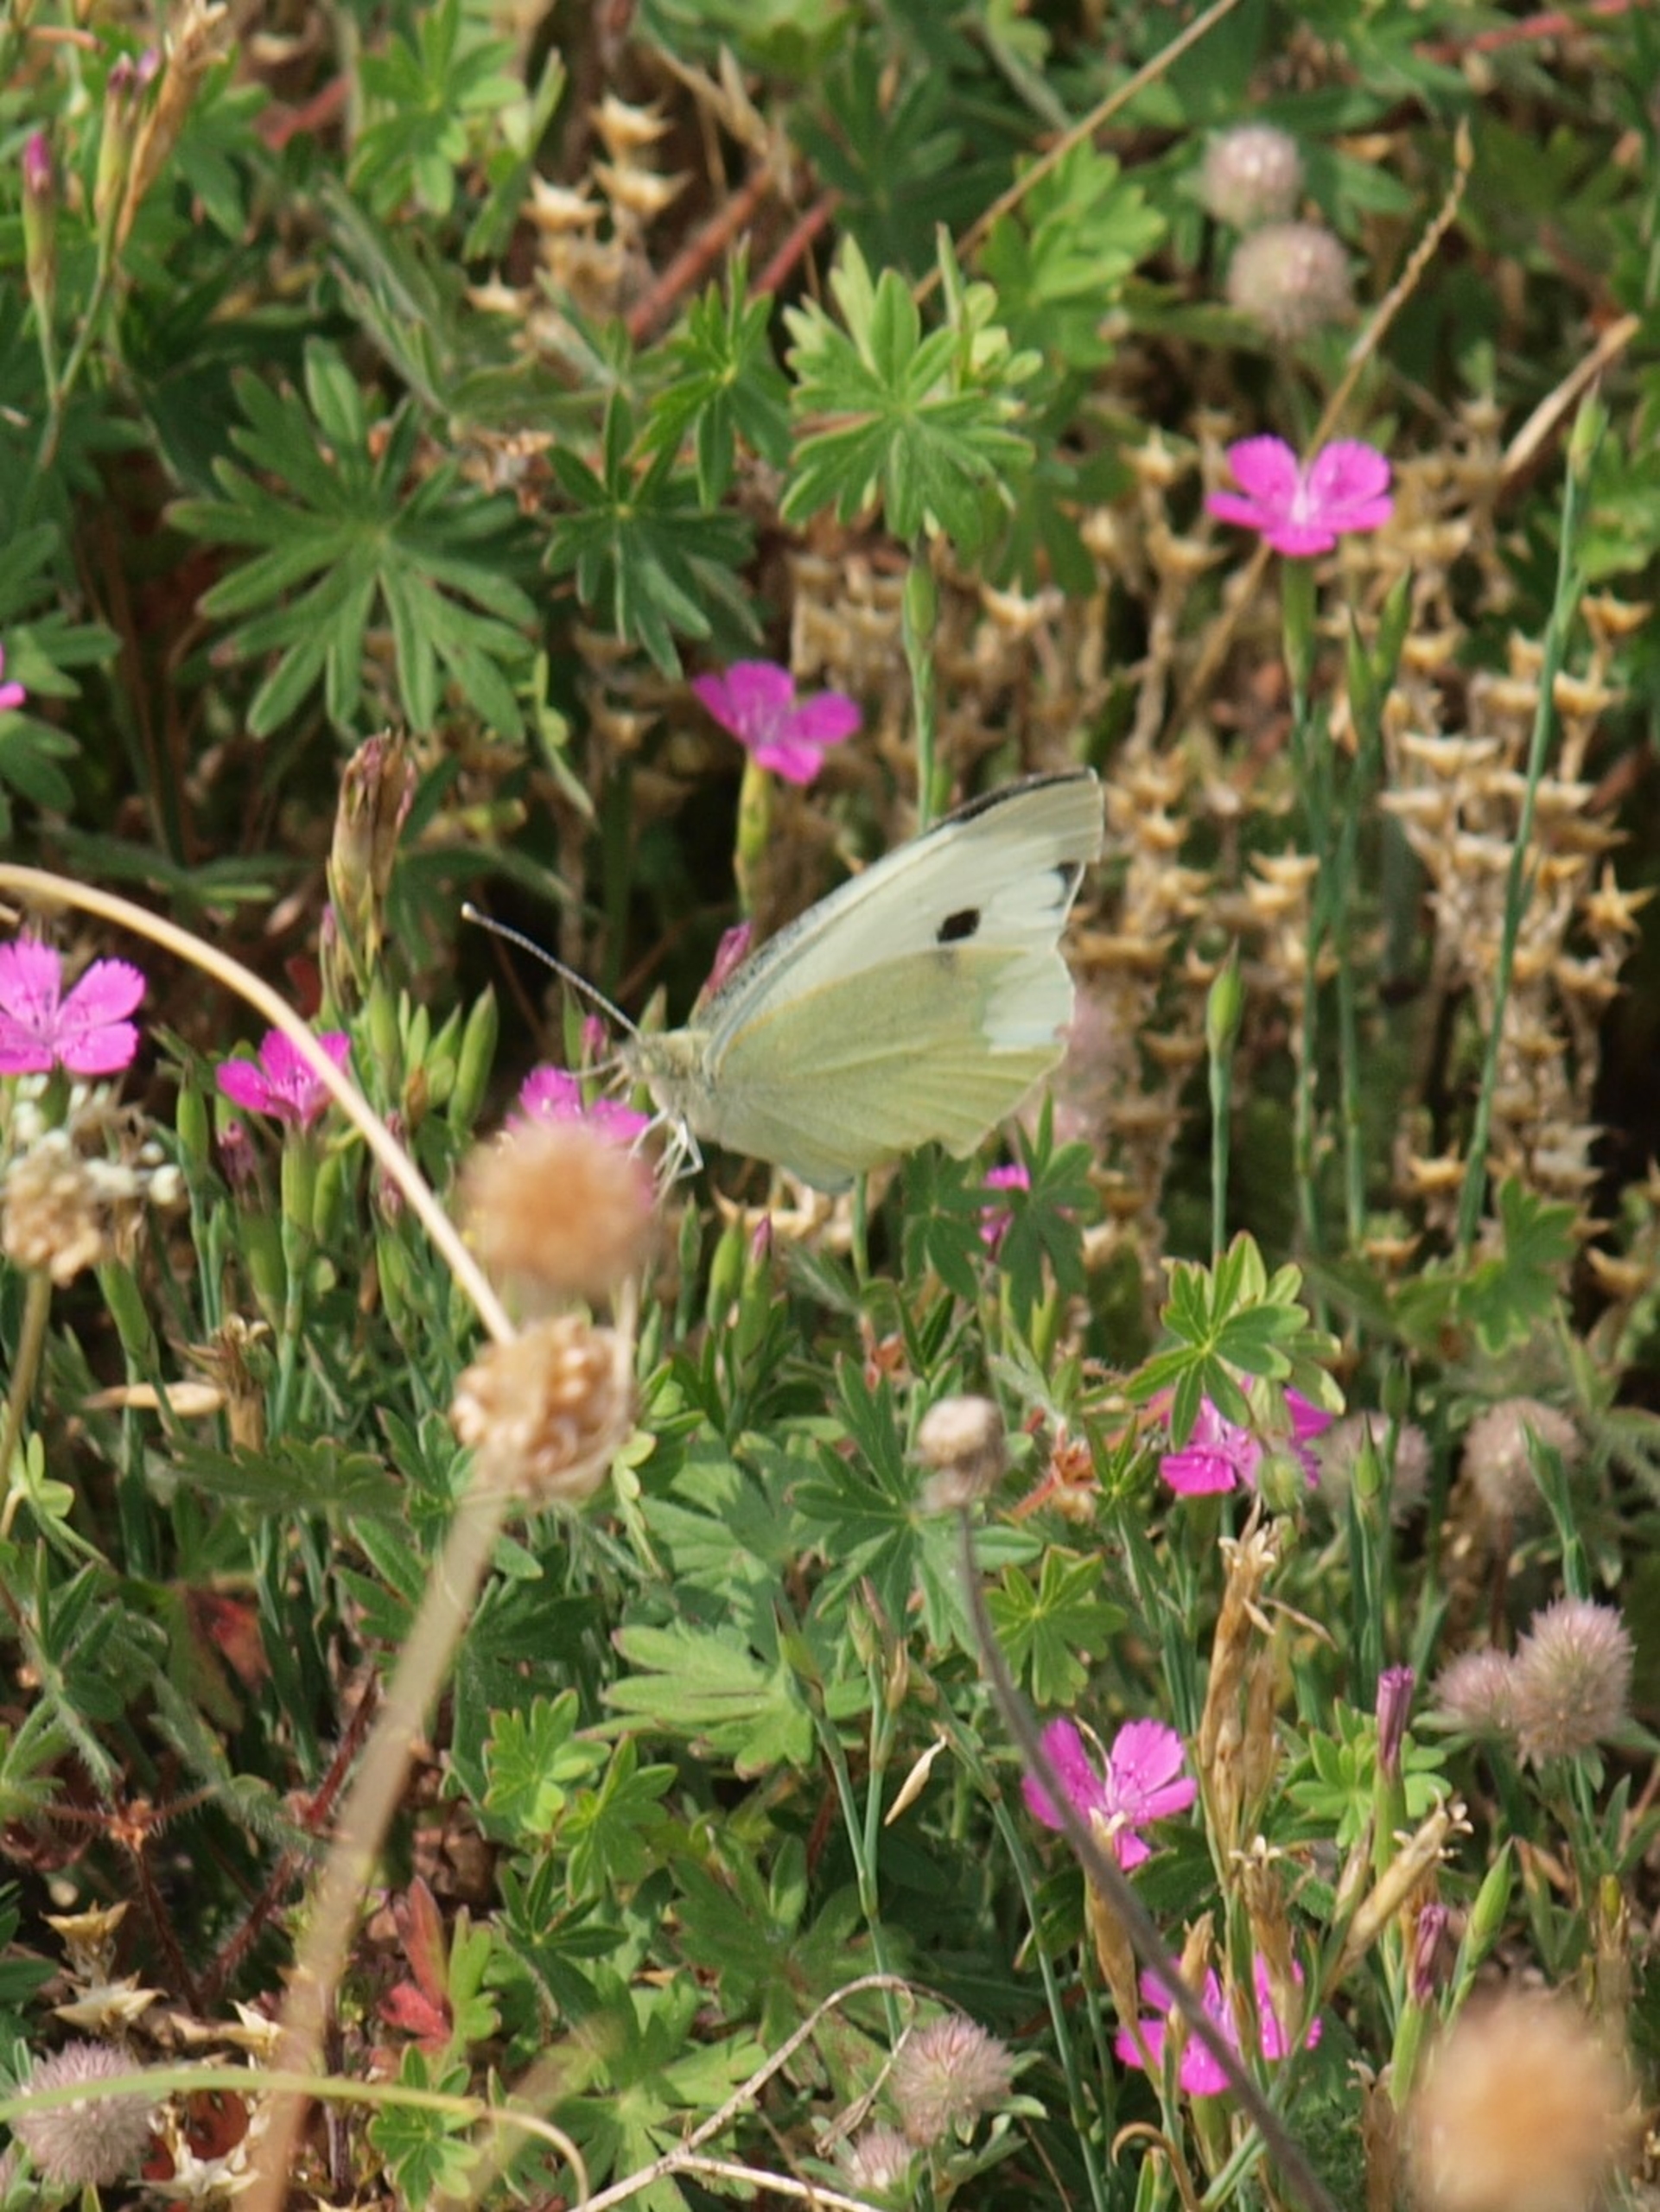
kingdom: Animalia
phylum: Arthropoda
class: Insecta
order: Lepidoptera
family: Pieridae
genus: Pieris
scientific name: Pieris brassicae
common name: Stor kålsommerfugl
